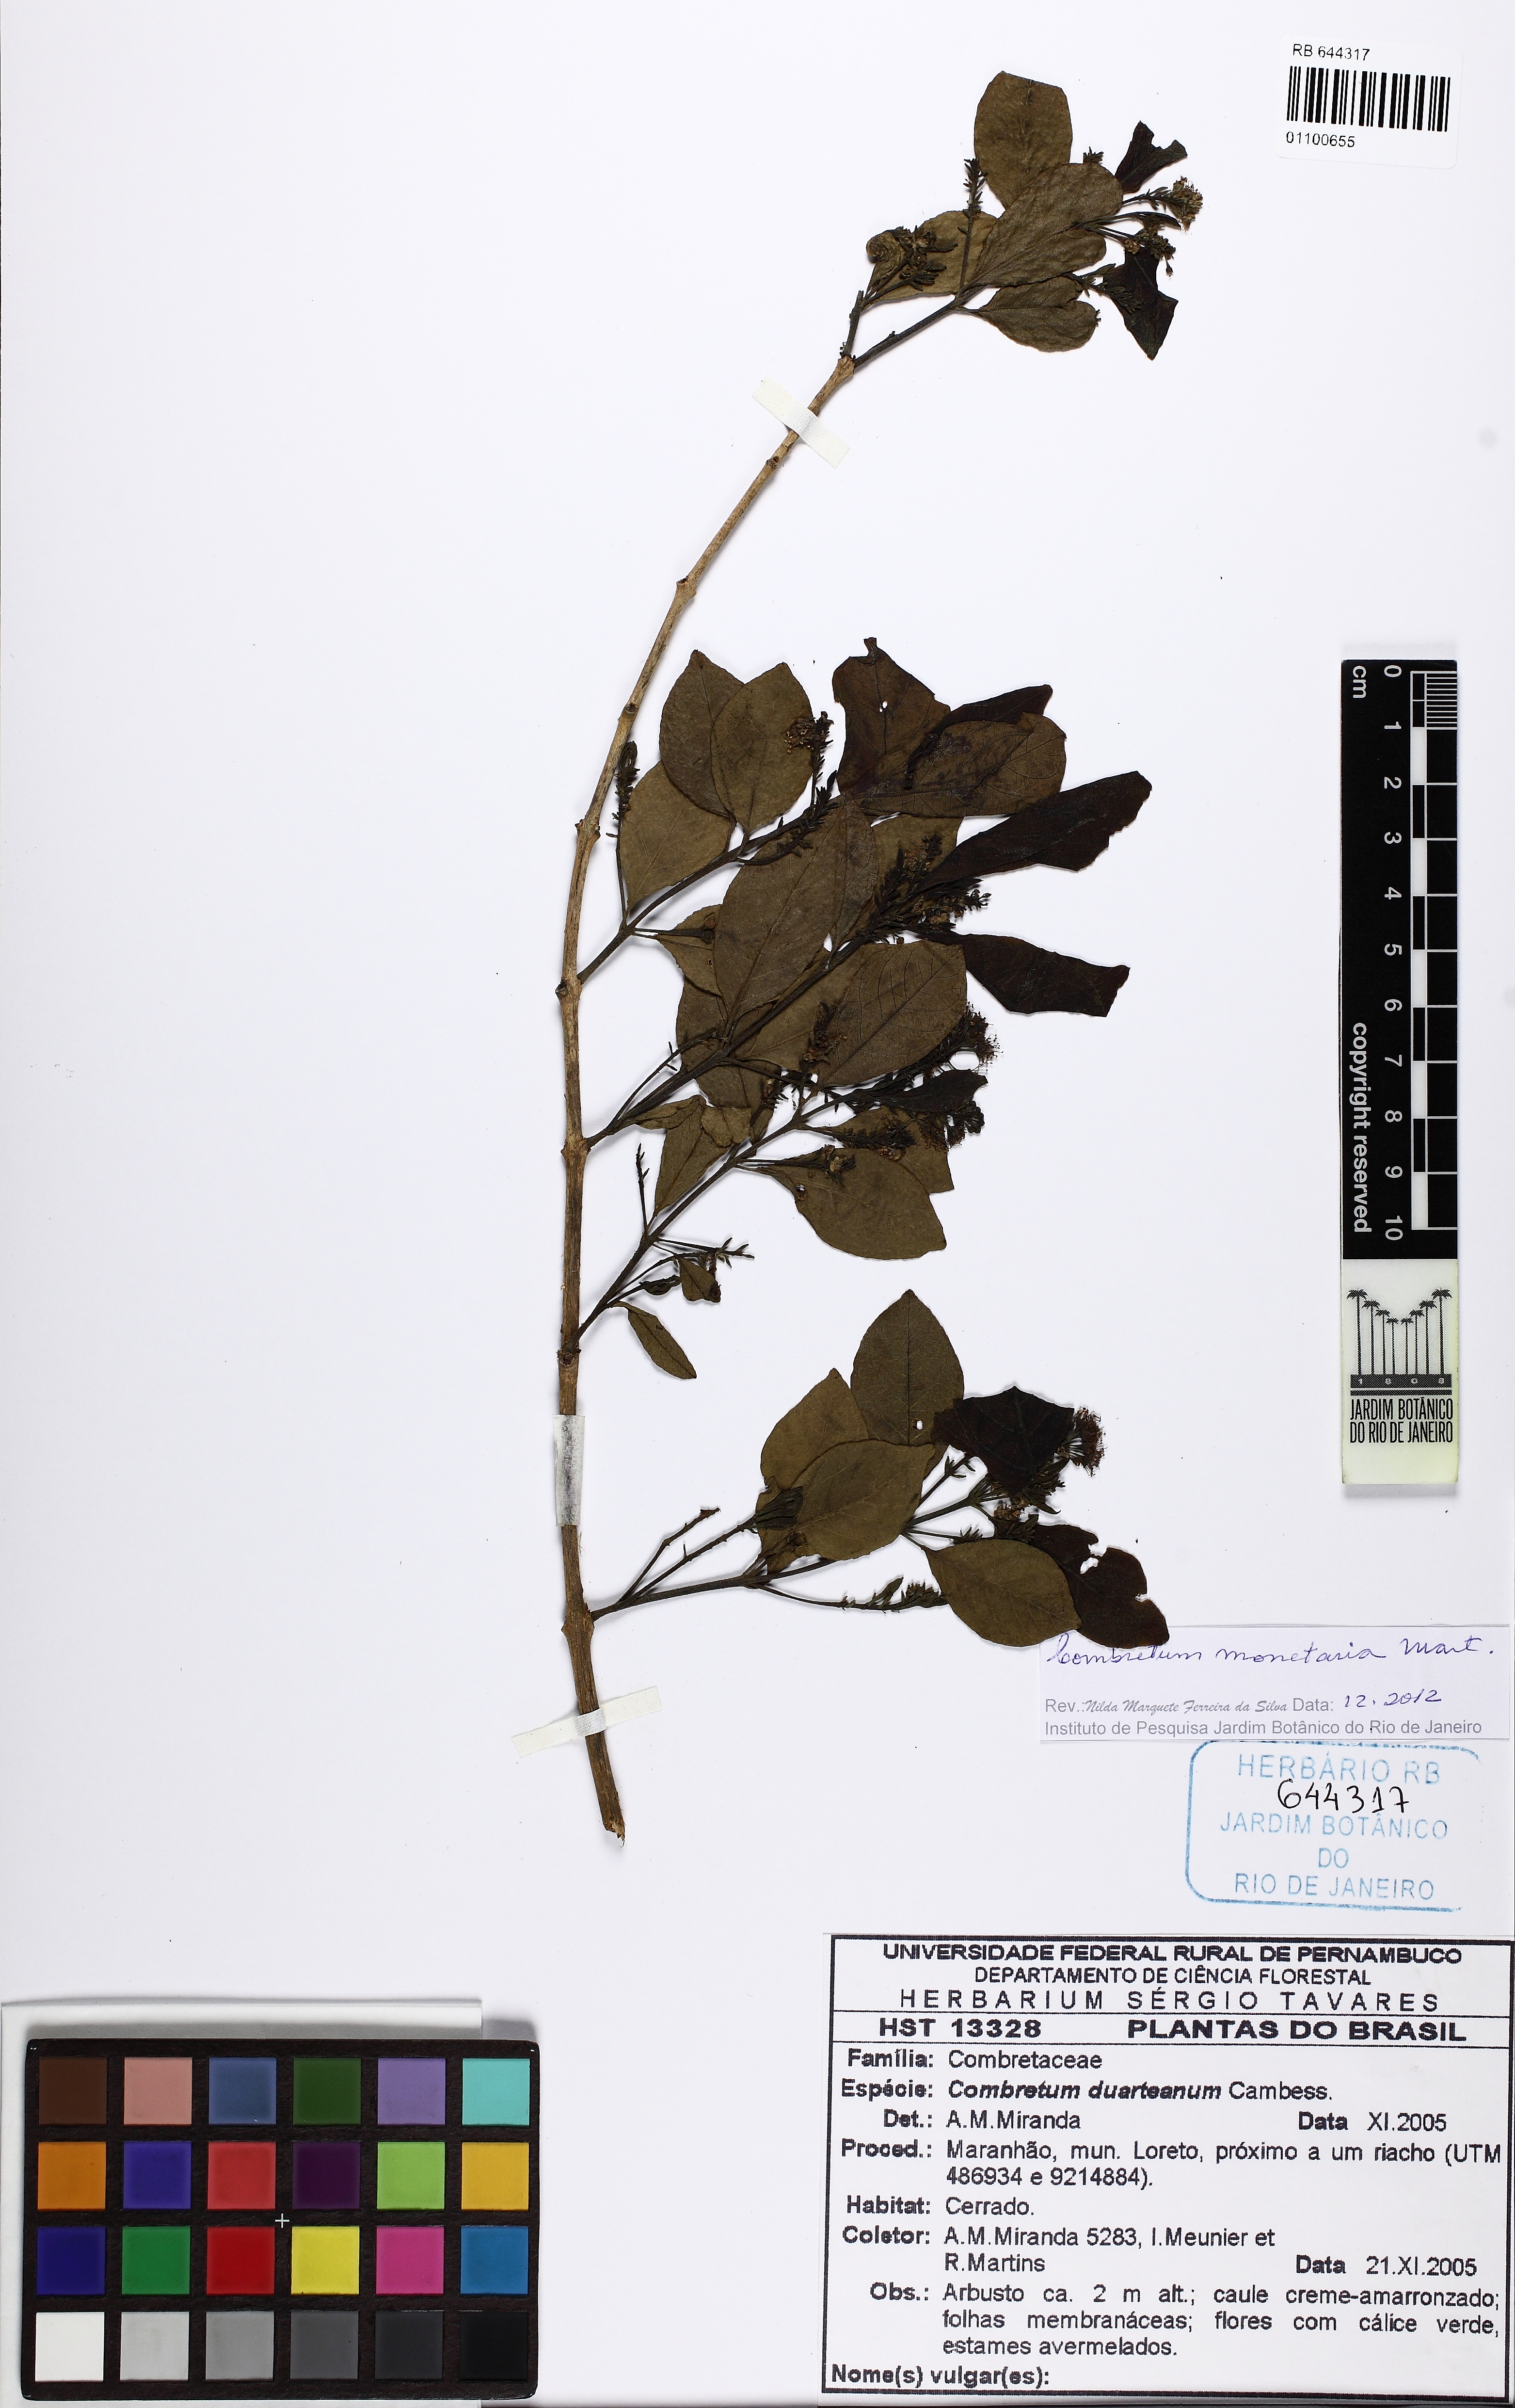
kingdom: Plantae
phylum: Tracheophyta
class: Magnoliopsida
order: Myrtales
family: Combretaceae
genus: Combretum
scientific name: Combretum monetaria
